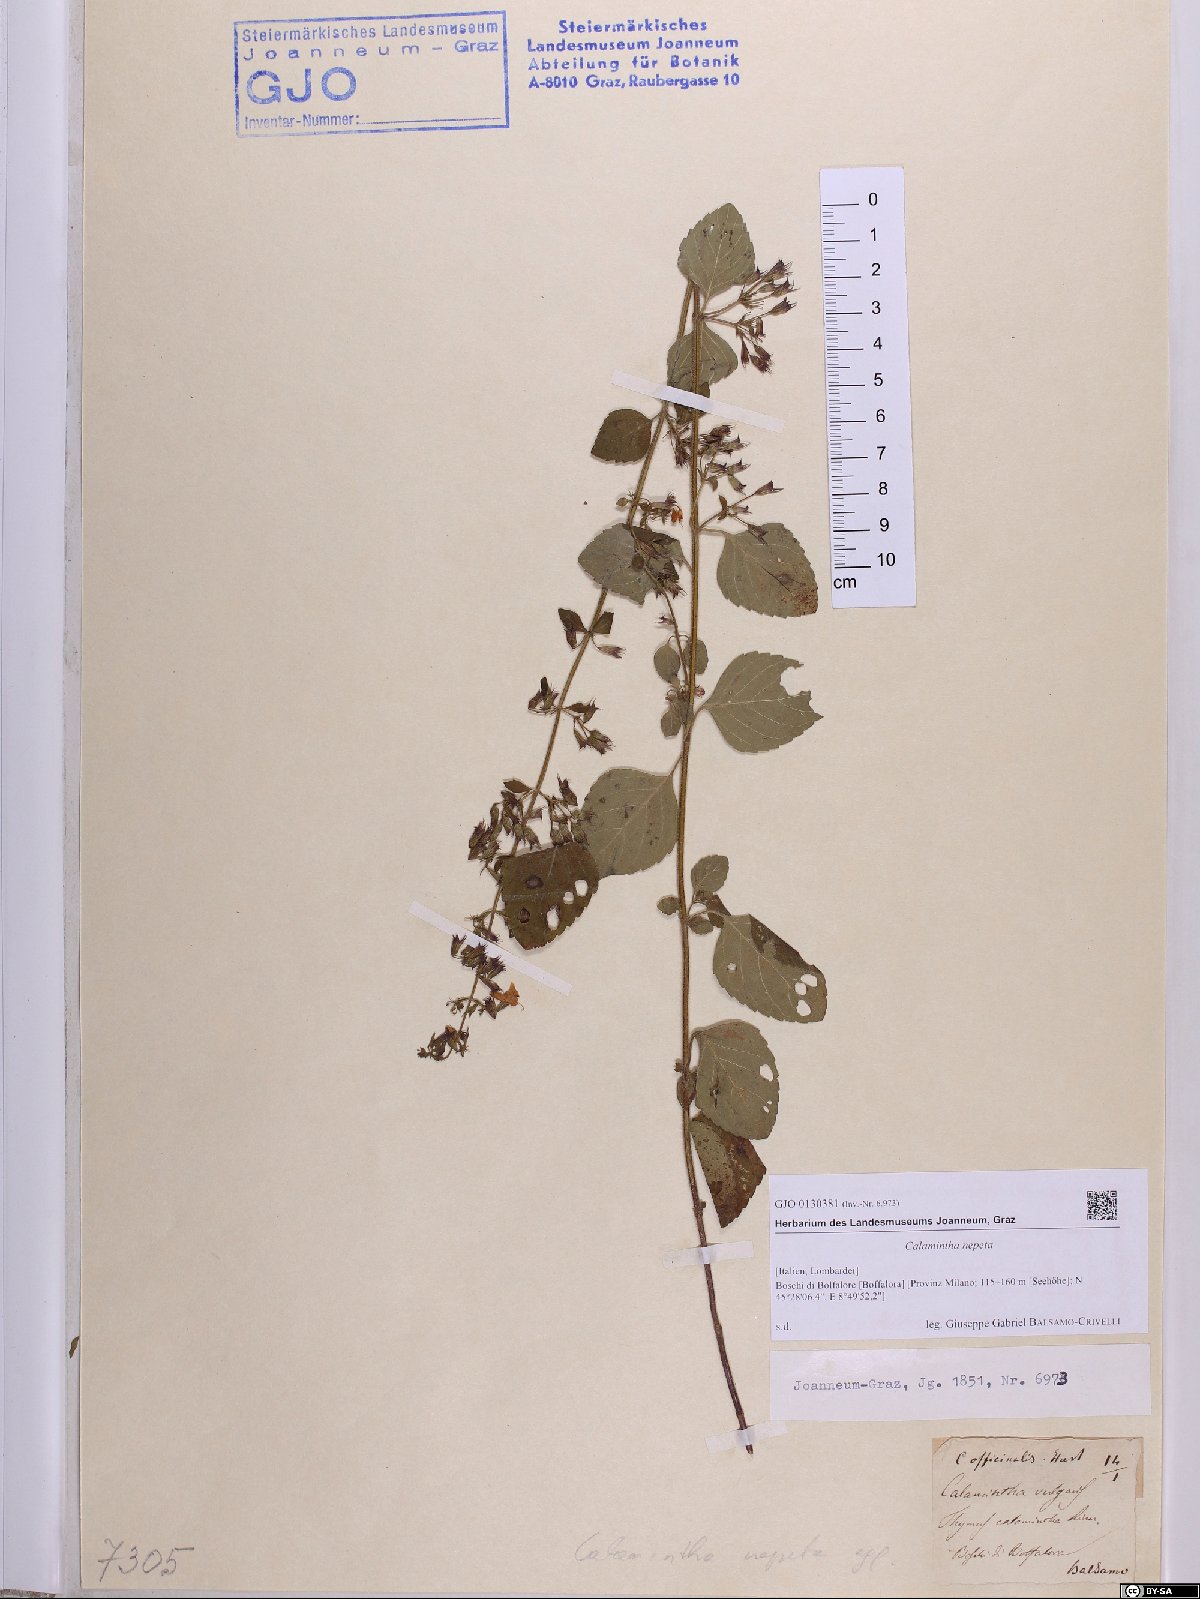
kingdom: Plantae
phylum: Tracheophyta
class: Magnoliopsida
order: Lamiales
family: Lamiaceae
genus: Clinopodium
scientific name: Clinopodium nepeta
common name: Lesser calamint
